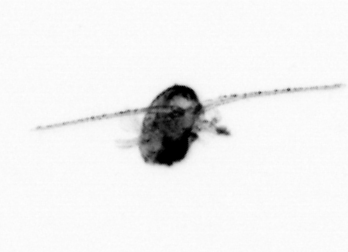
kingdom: Animalia
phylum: Arthropoda
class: Copepoda
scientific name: Copepoda
